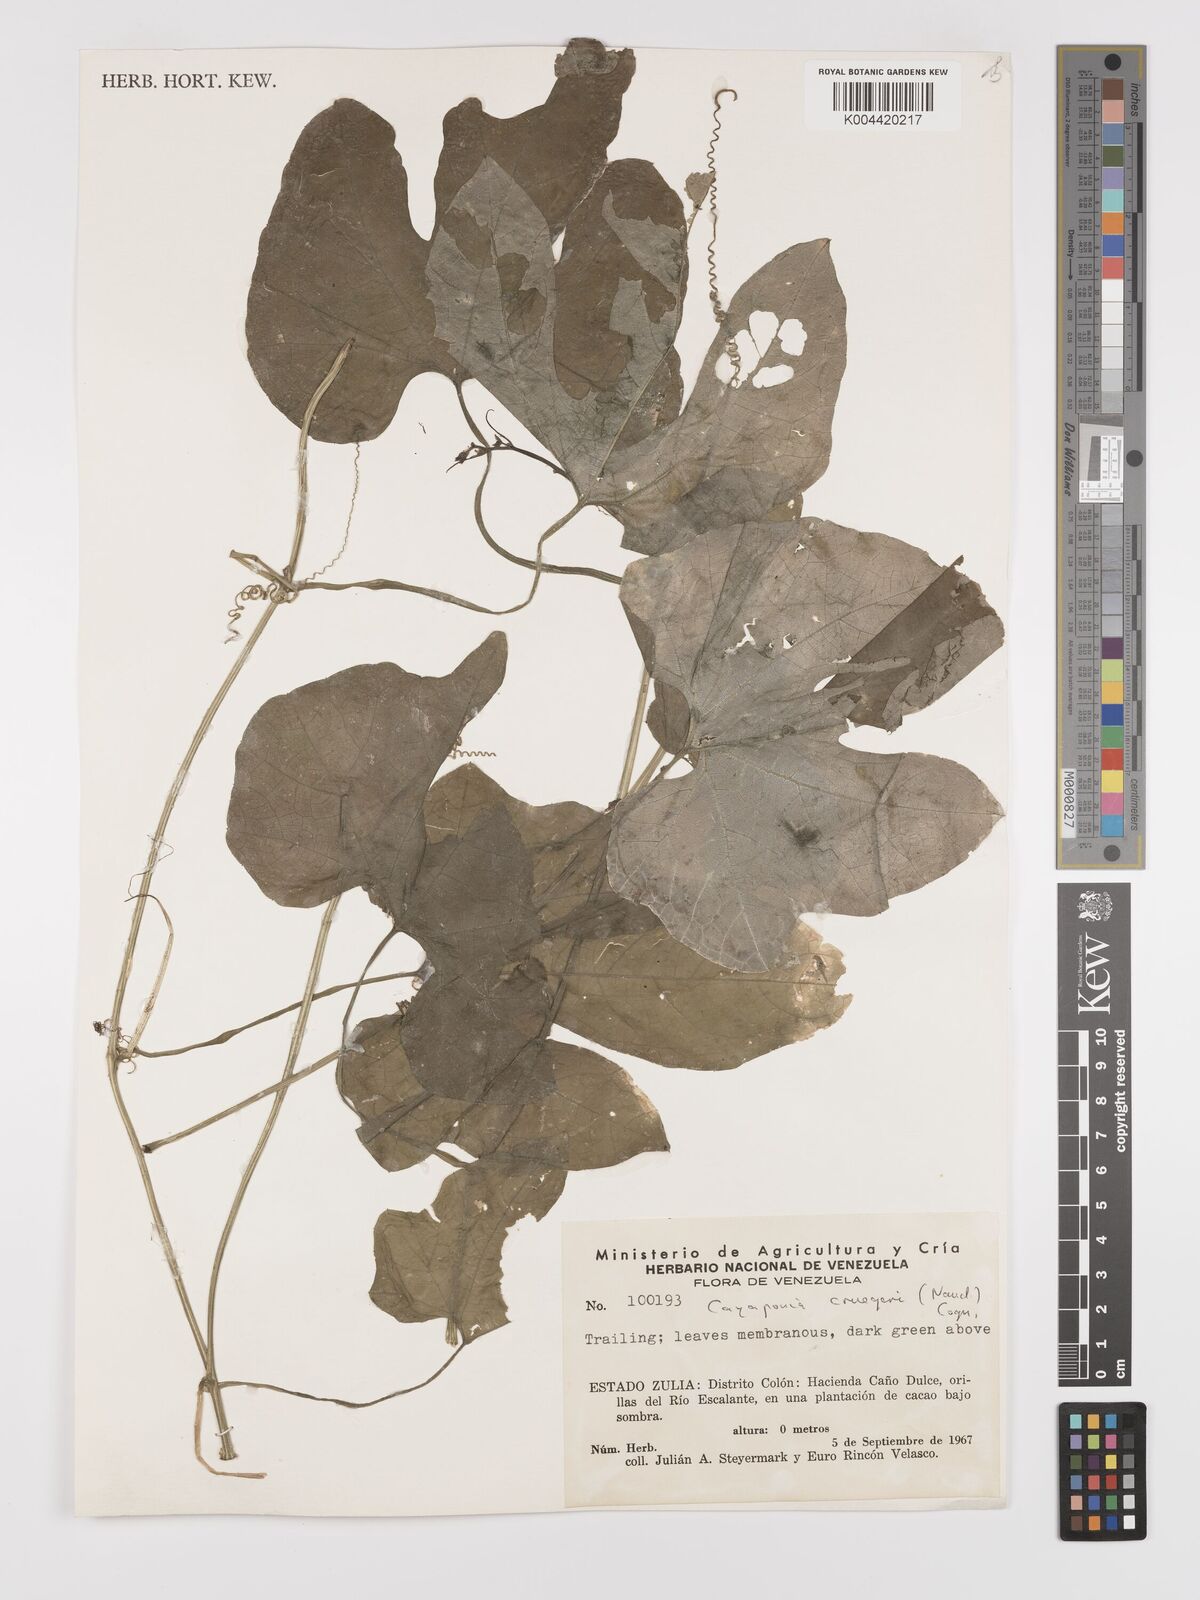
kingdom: Plantae
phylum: Tracheophyta
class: Magnoliopsida
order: Cucurbitales
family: Cucurbitaceae
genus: Cayaponia
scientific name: Cayaponia cruegeri
